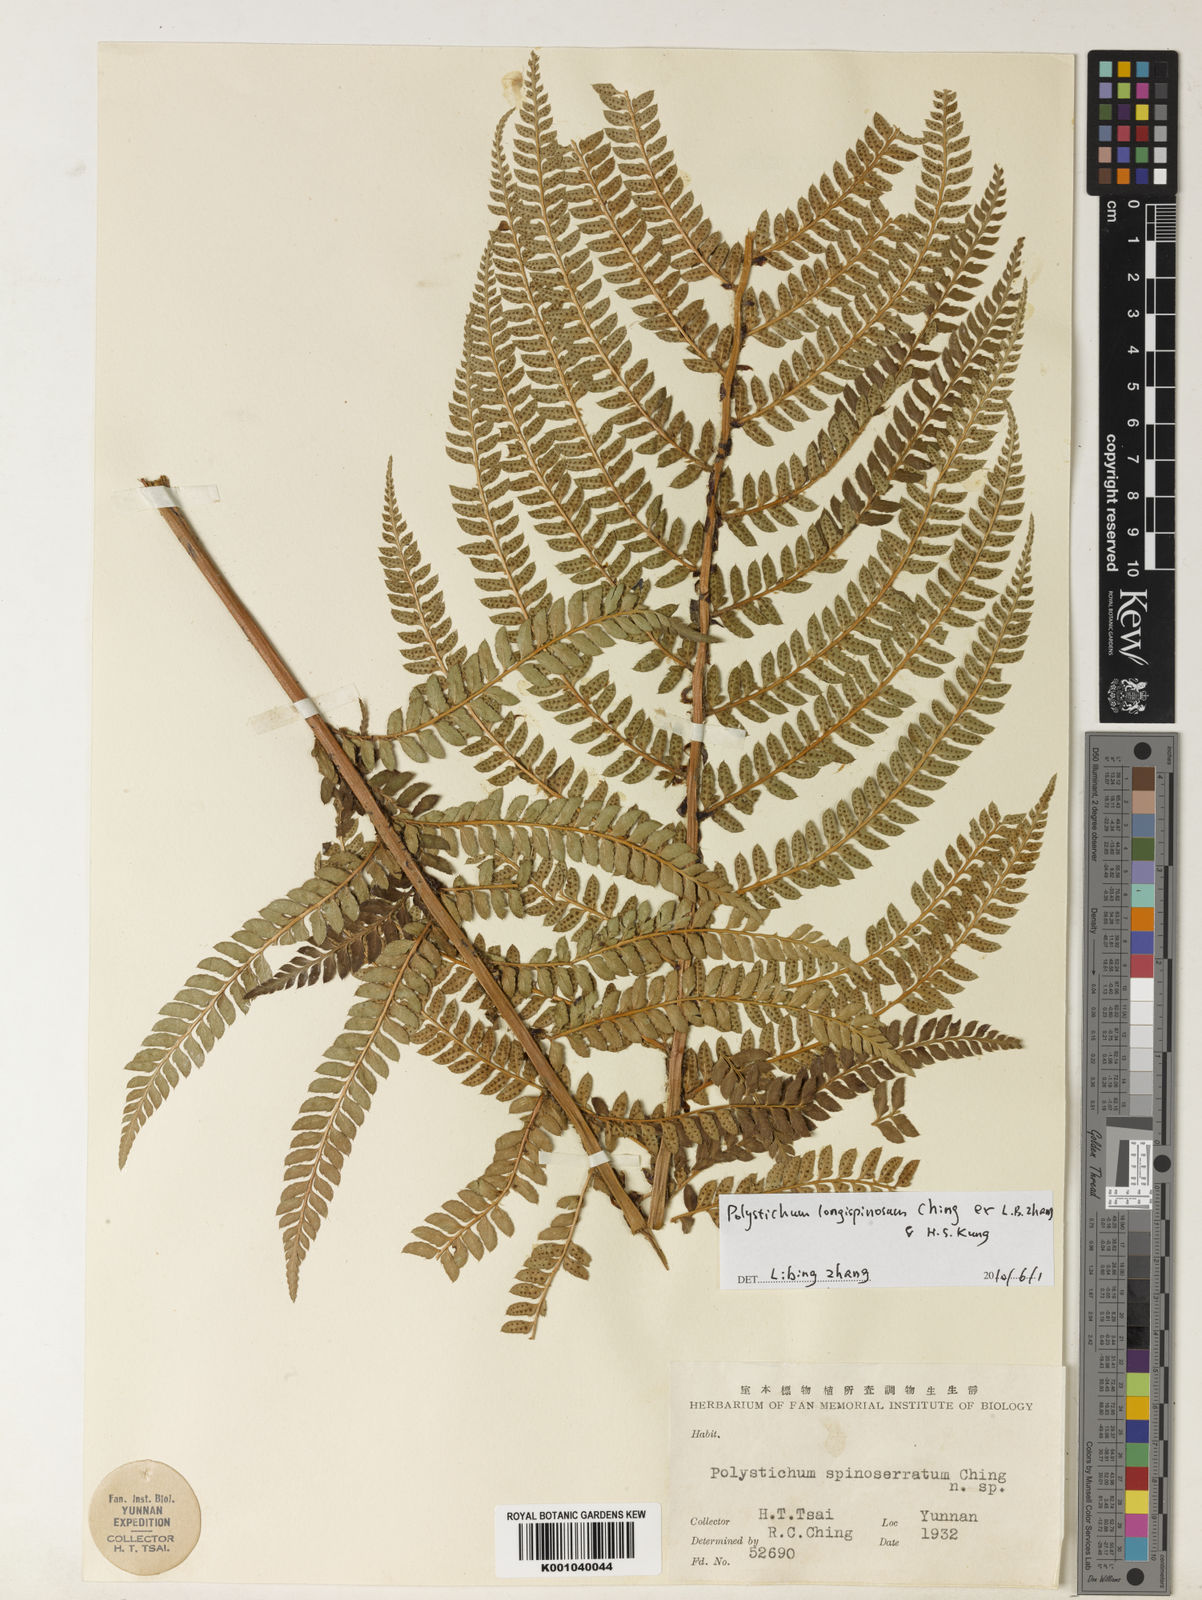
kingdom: Plantae
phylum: Tracheophyta
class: Polypodiopsida
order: Polypodiales
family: Dryopteridaceae
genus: Polystichum
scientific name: Polystichum
